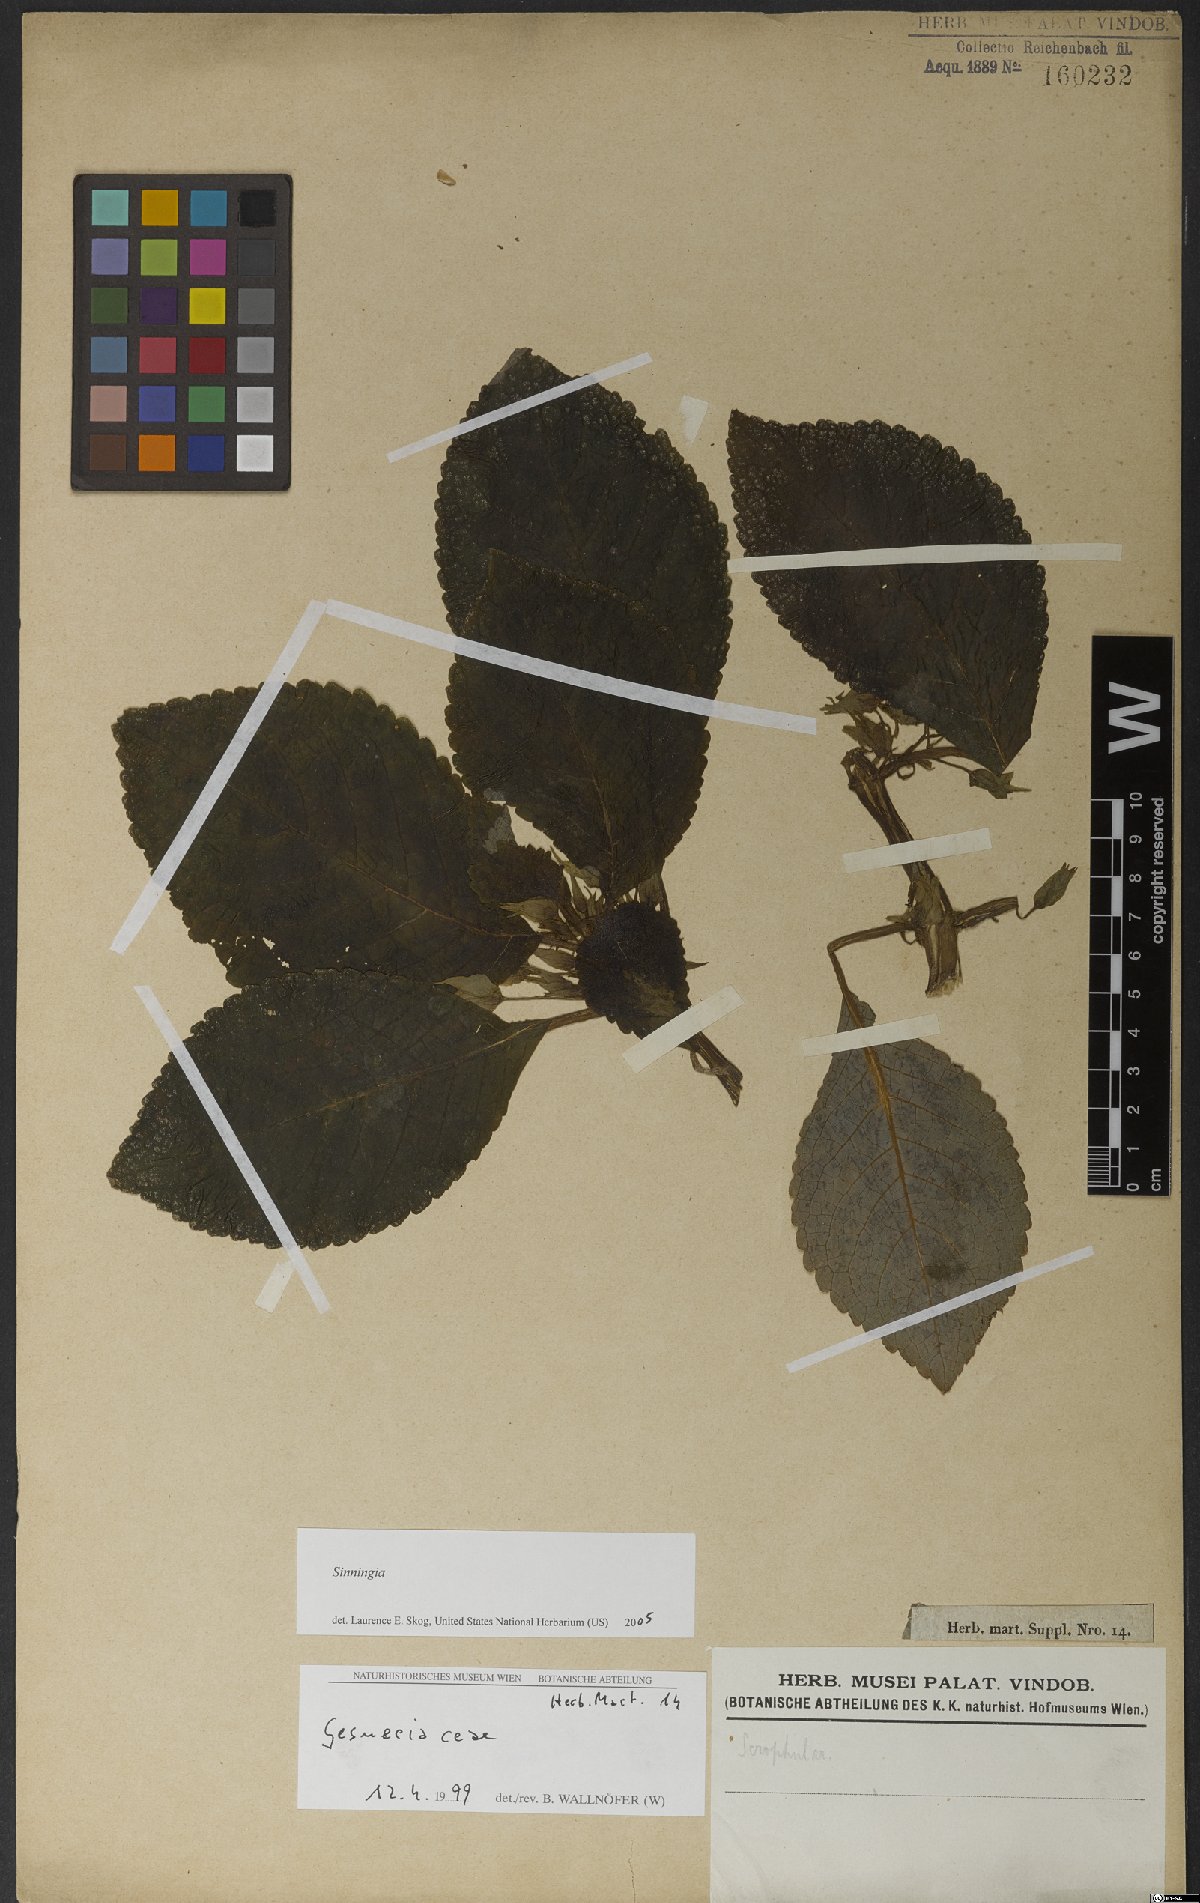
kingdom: Plantae
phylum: Tracheophyta
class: Magnoliopsida
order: Lamiales
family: Gesneriaceae
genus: Sinningia
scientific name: Sinningia
